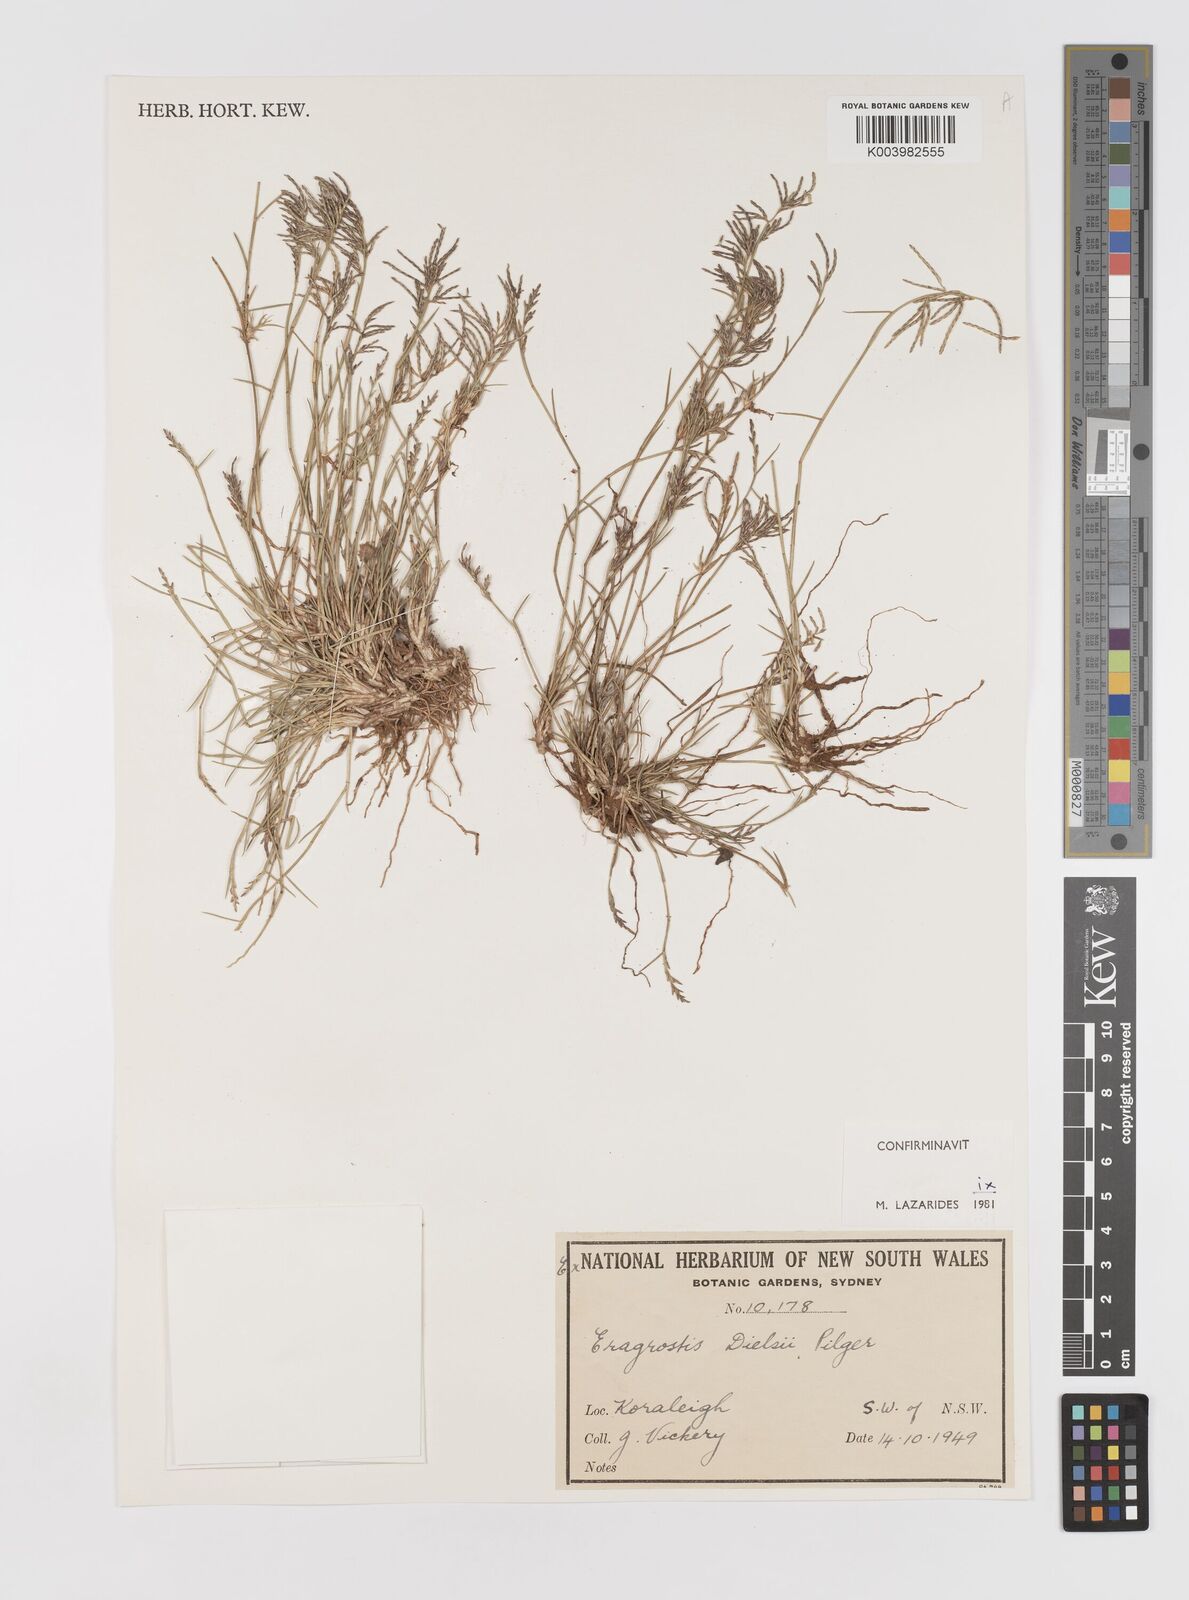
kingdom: Plantae
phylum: Tracheophyta
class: Liliopsida
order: Poales
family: Poaceae
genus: Eragrostis
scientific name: Eragrostis dielsii
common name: Lovegrass
